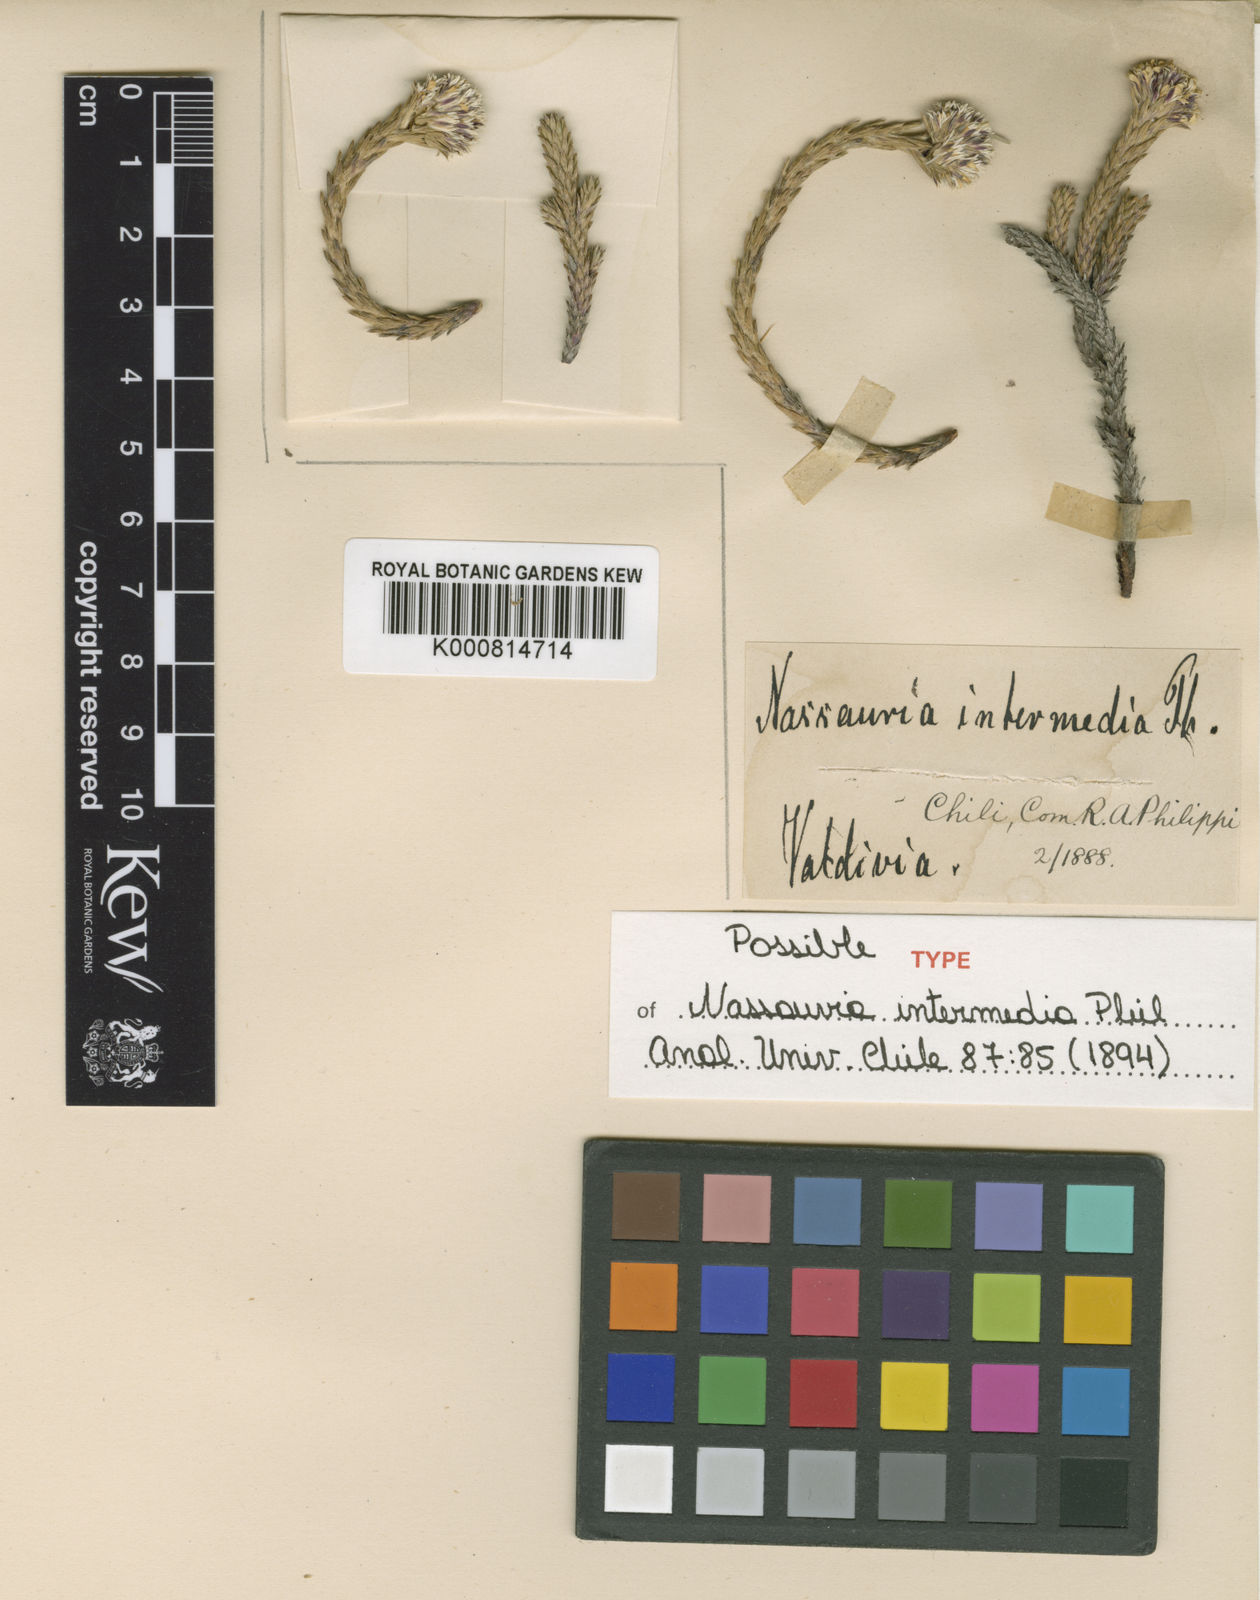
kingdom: Plantae
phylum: Tracheophyta
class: Magnoliopsida
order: Asterales
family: Asteraceae
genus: Nassauvia
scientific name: Nassauvia pygmaea
